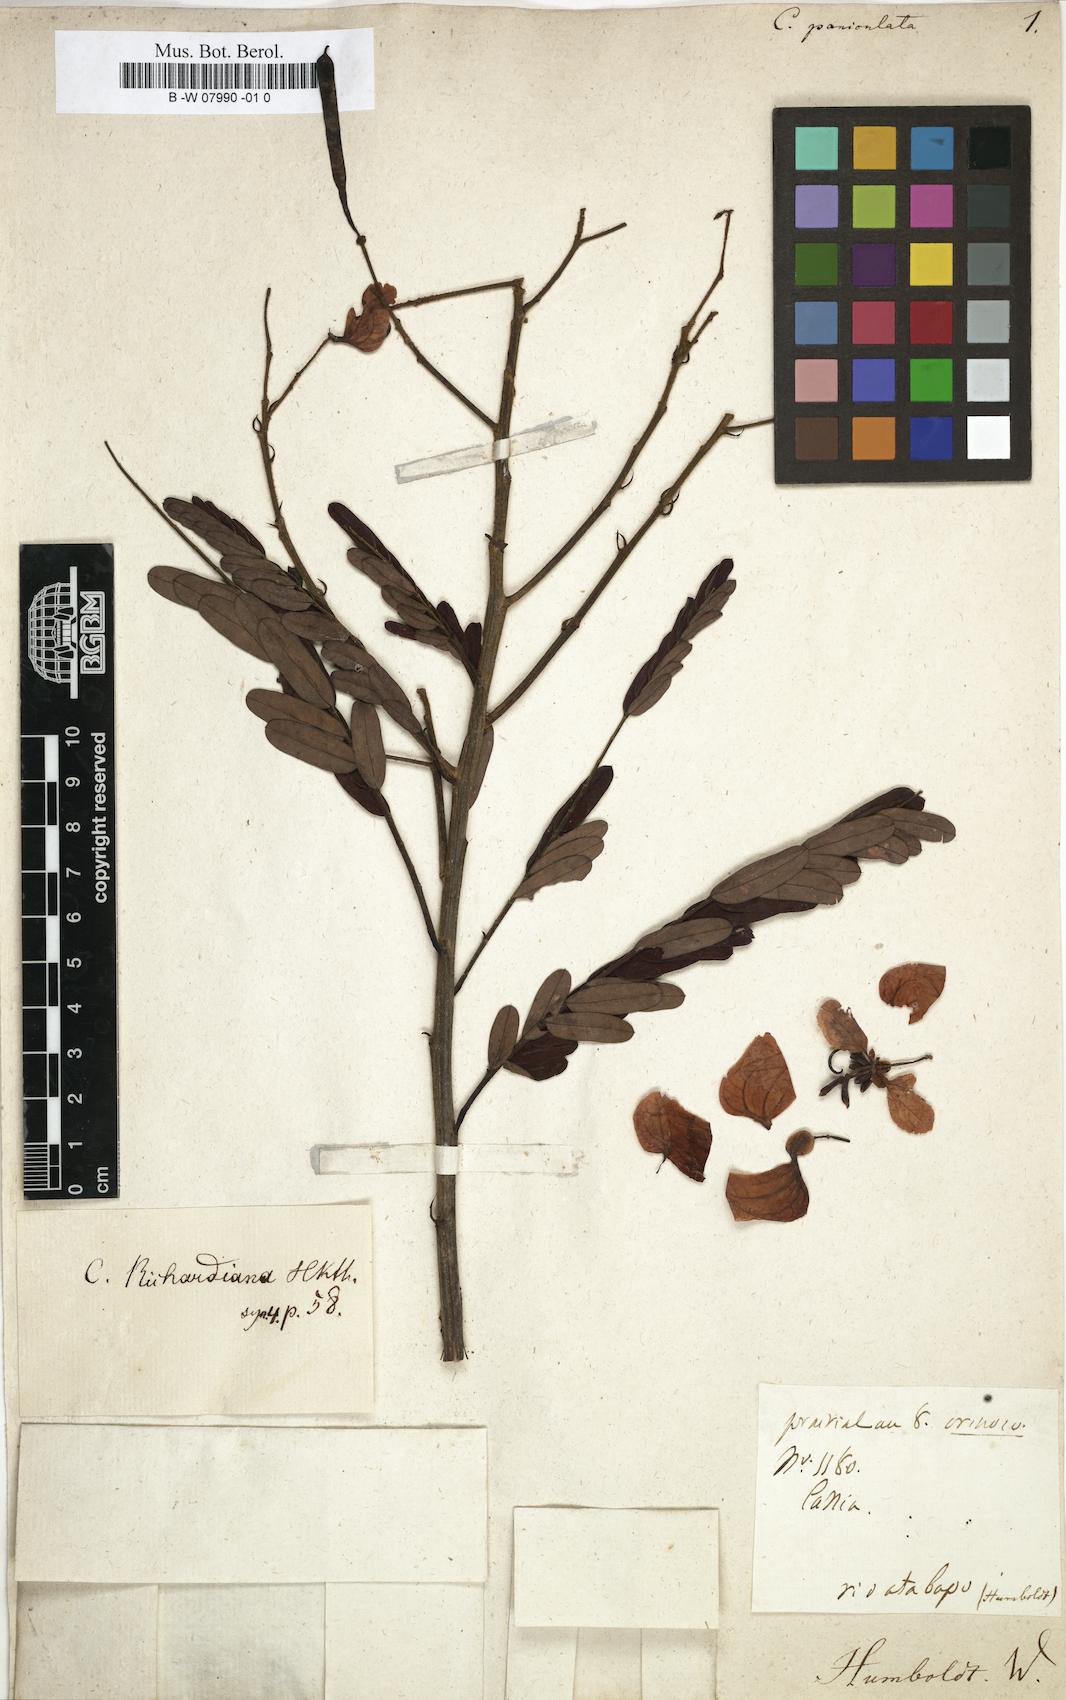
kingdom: Plantae
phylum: Tracheophyta
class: Magnoliopsida
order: Fabales
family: Fabaceae
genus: Chamaecrista
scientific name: Chamaecrista paniculata
